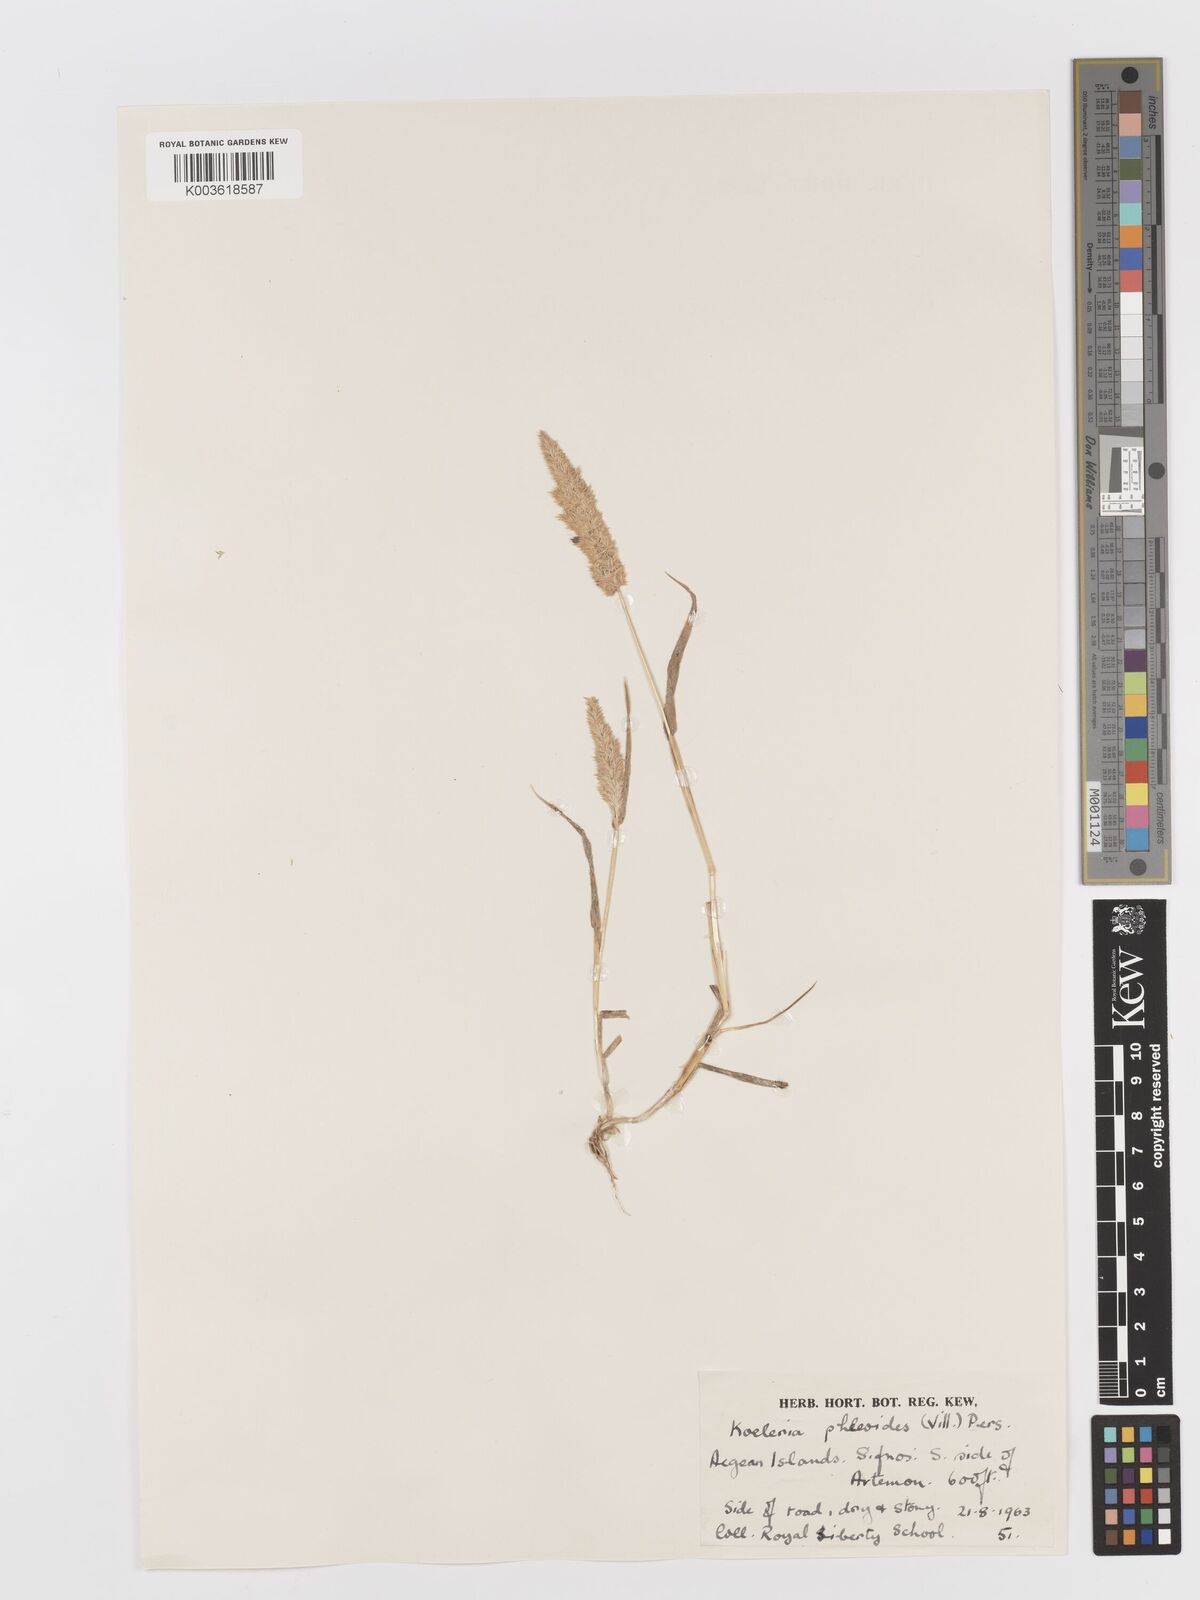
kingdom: Plantae
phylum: Tracheophyta
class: Liliopsida
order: Poales
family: Poaceae
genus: Rostraria
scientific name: Rostraria cristata
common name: Mediterranean hair-grass
